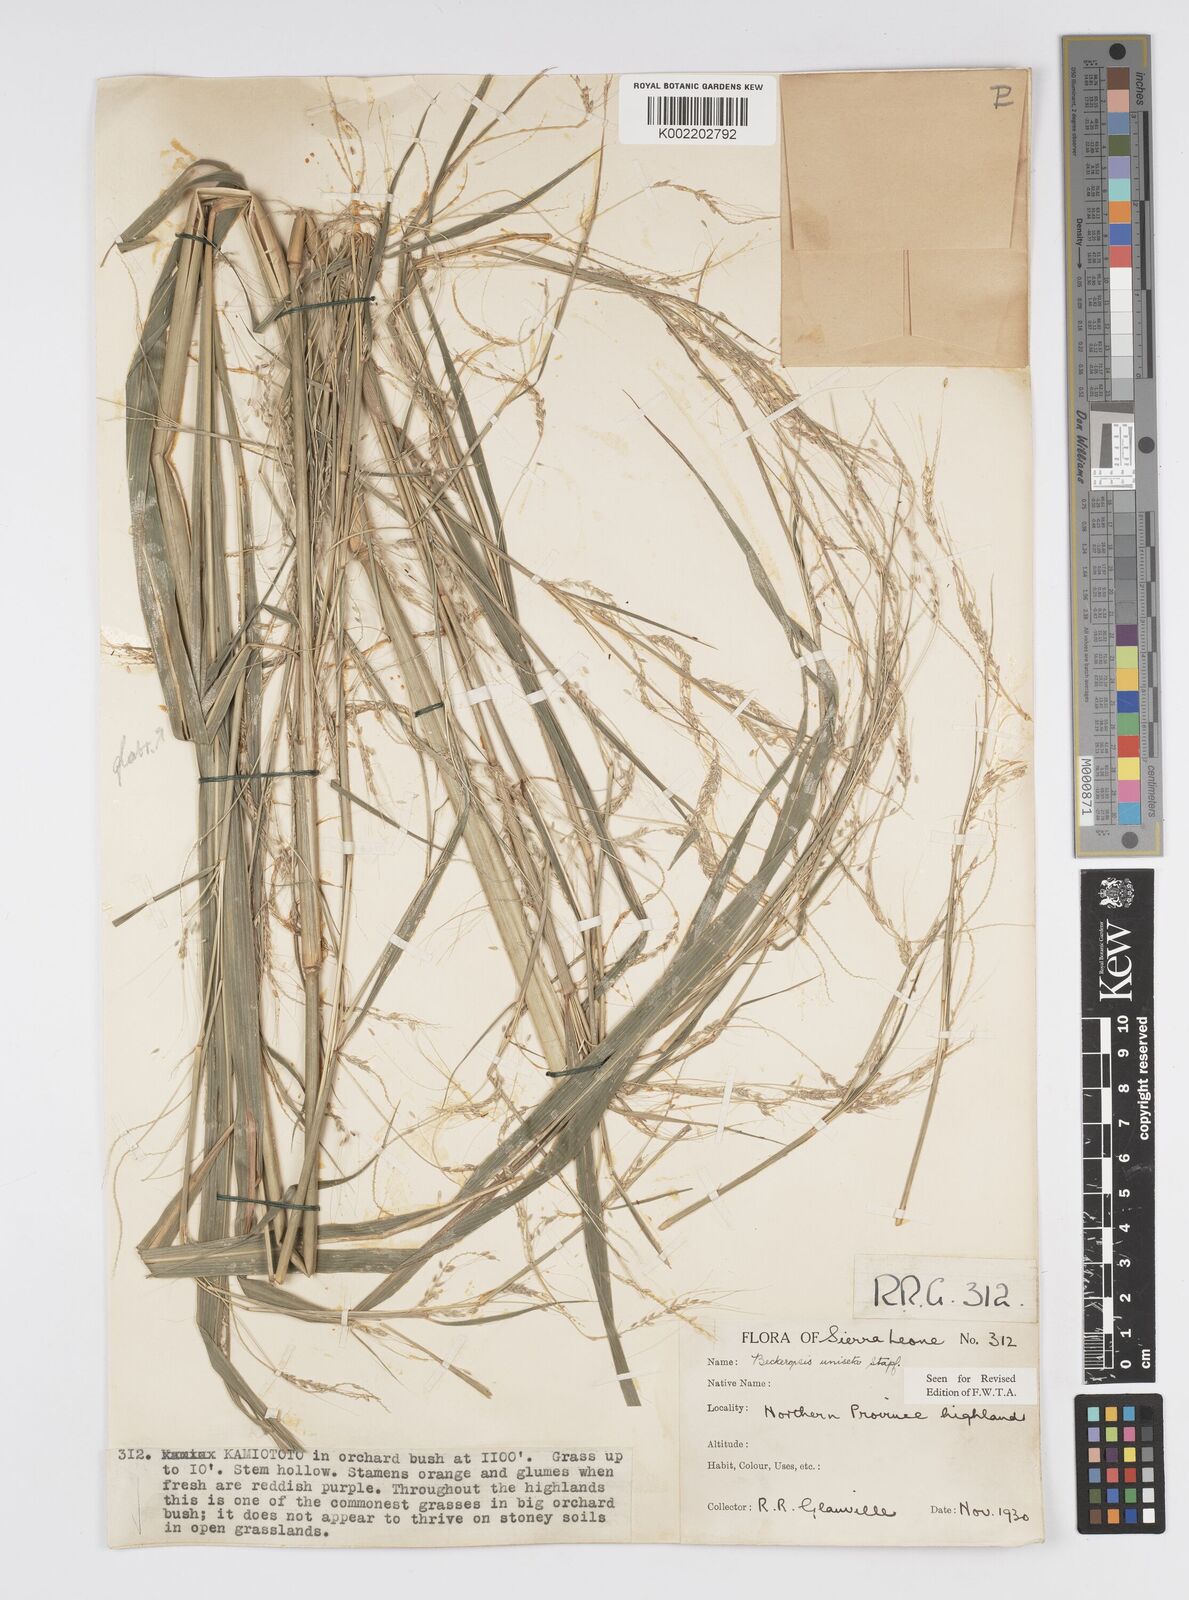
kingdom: Plantae
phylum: Tracheophyta
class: Liliopsida
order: Poales
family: Poaceae
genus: Cenchrus
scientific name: Cenchrus unisetus
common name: Natal grass
